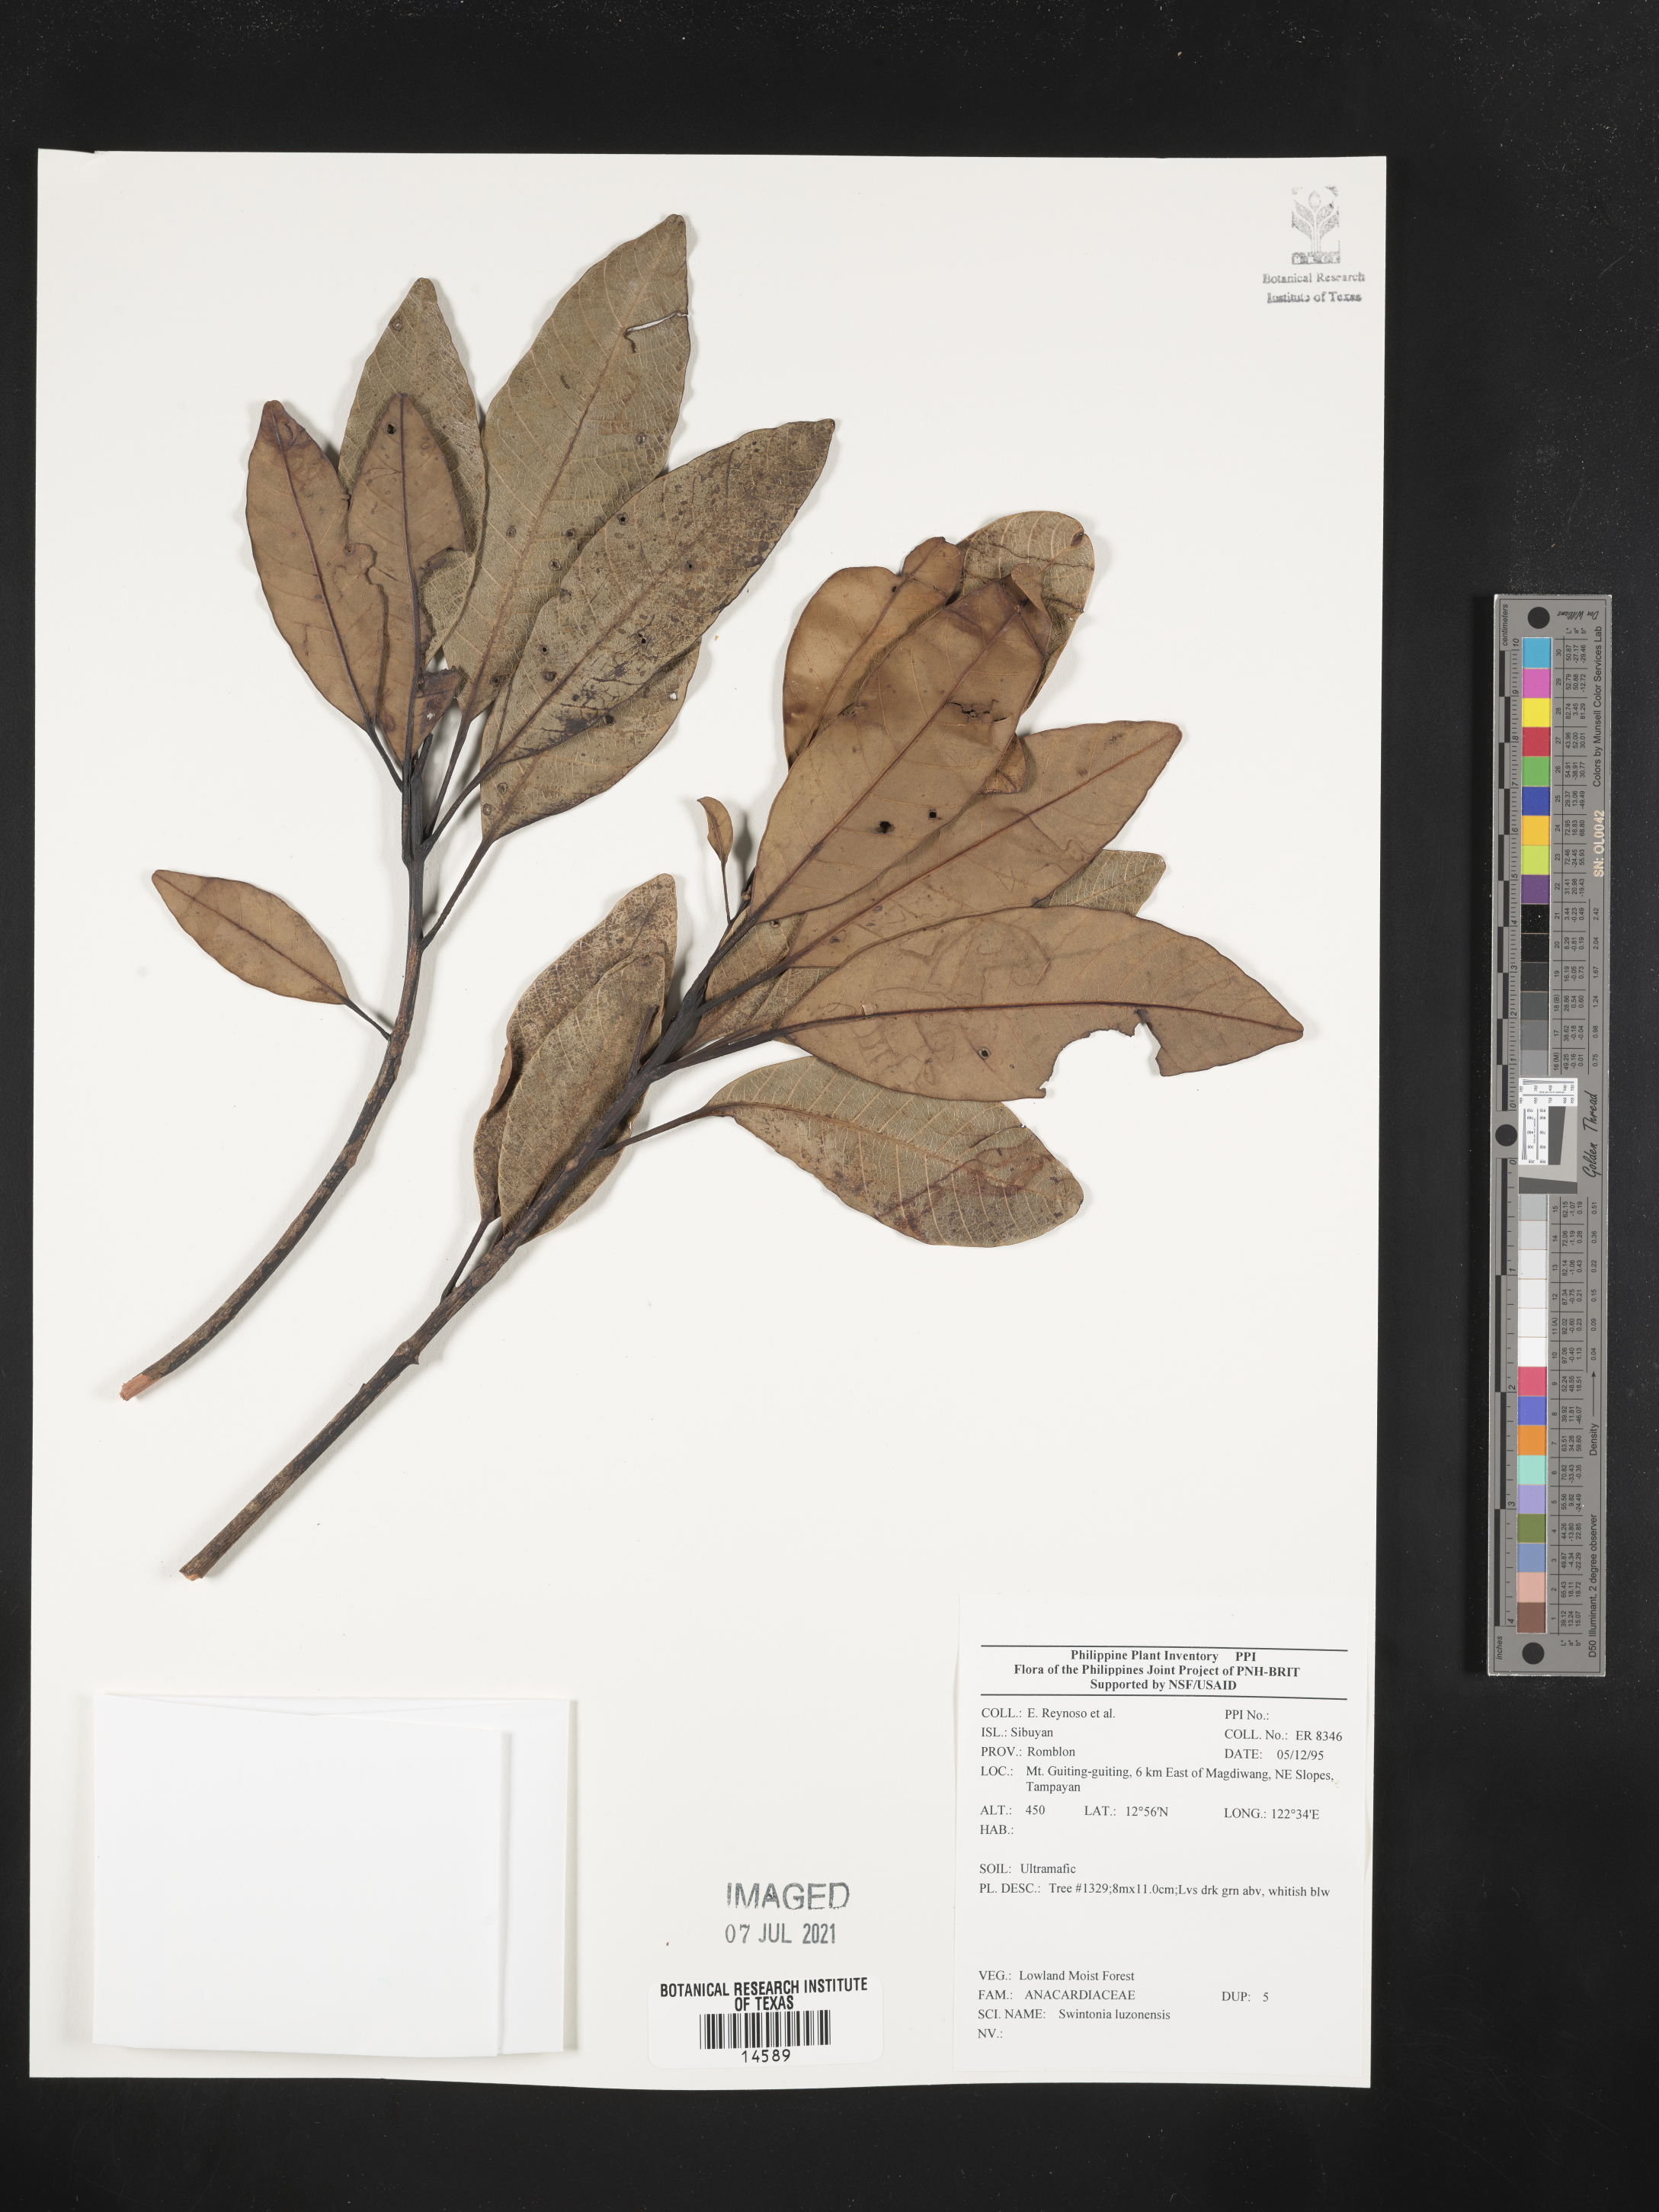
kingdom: Plantae
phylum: Tracheophyta
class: Magnoliopsida
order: Sapindales
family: Anacardiaceae
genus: Swintonia
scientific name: Swintonia acuta
